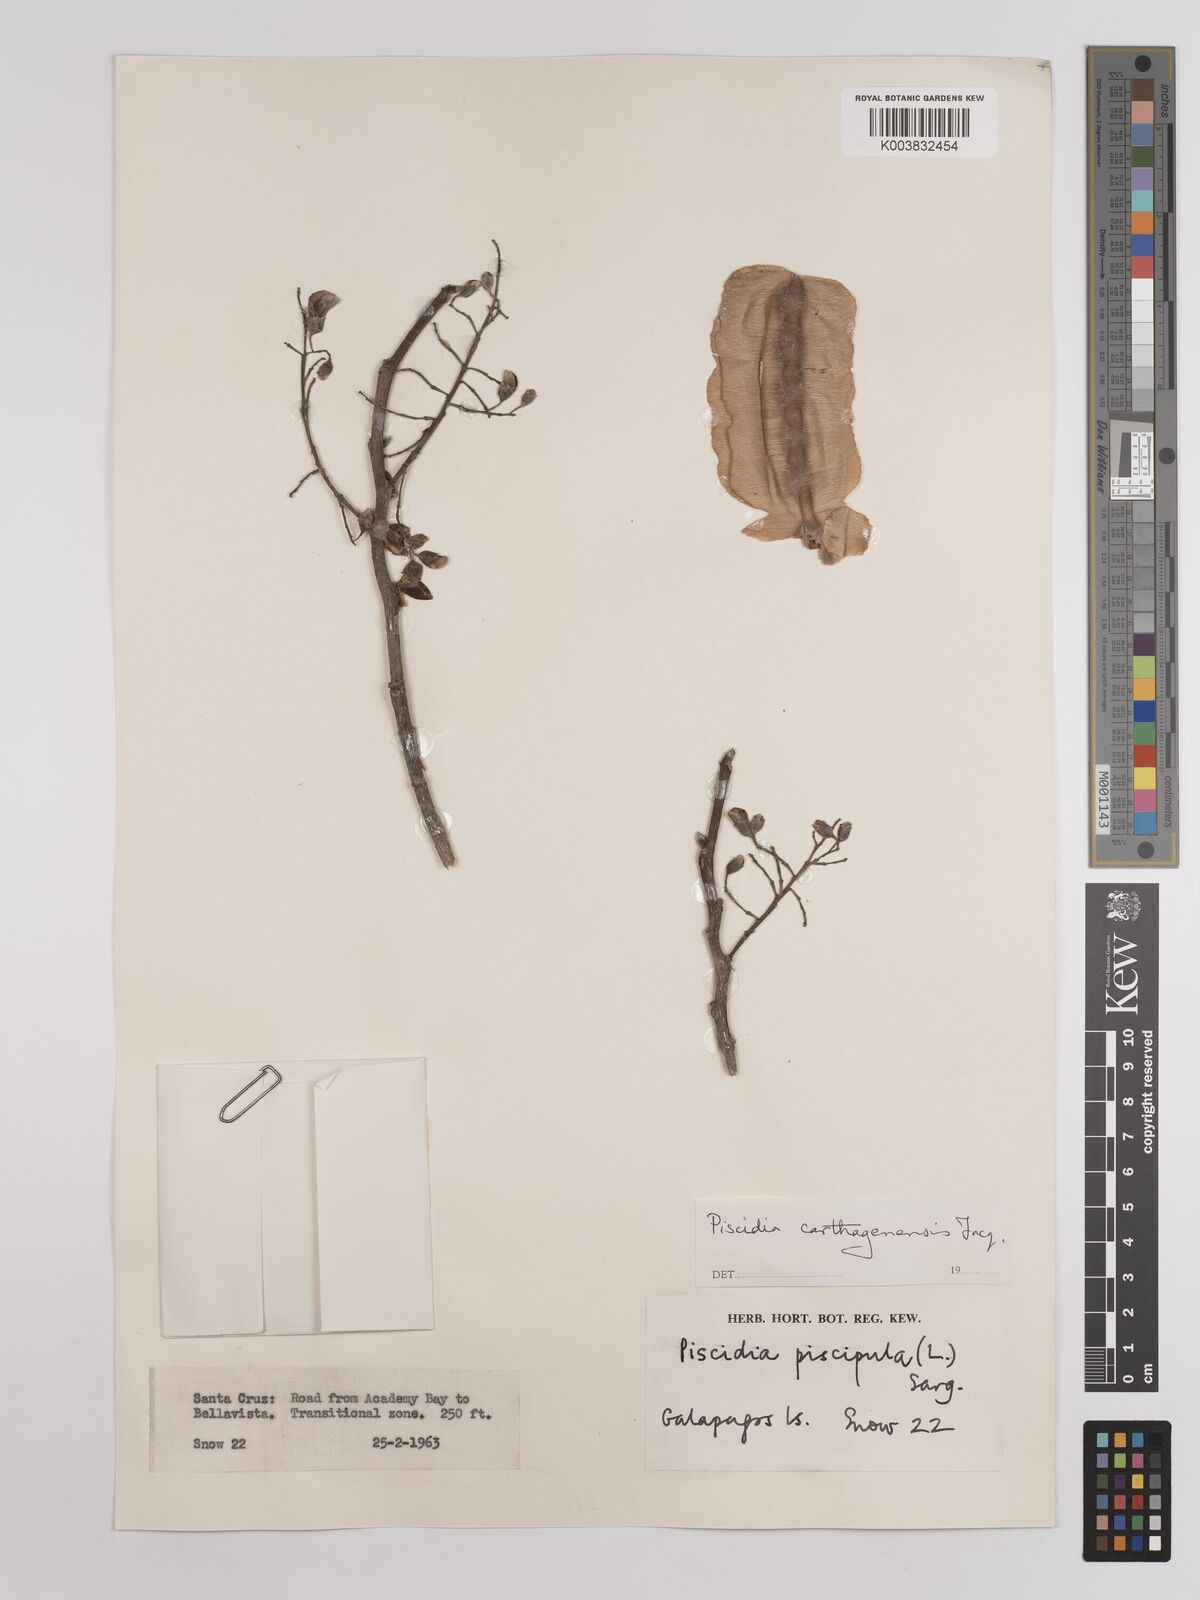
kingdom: Plantae
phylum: Tracheophyta
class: Magnoliopsida
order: Fabales
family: Fabaceae
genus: Piscidia
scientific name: Piscidia carthagenensis
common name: Stinkwood
